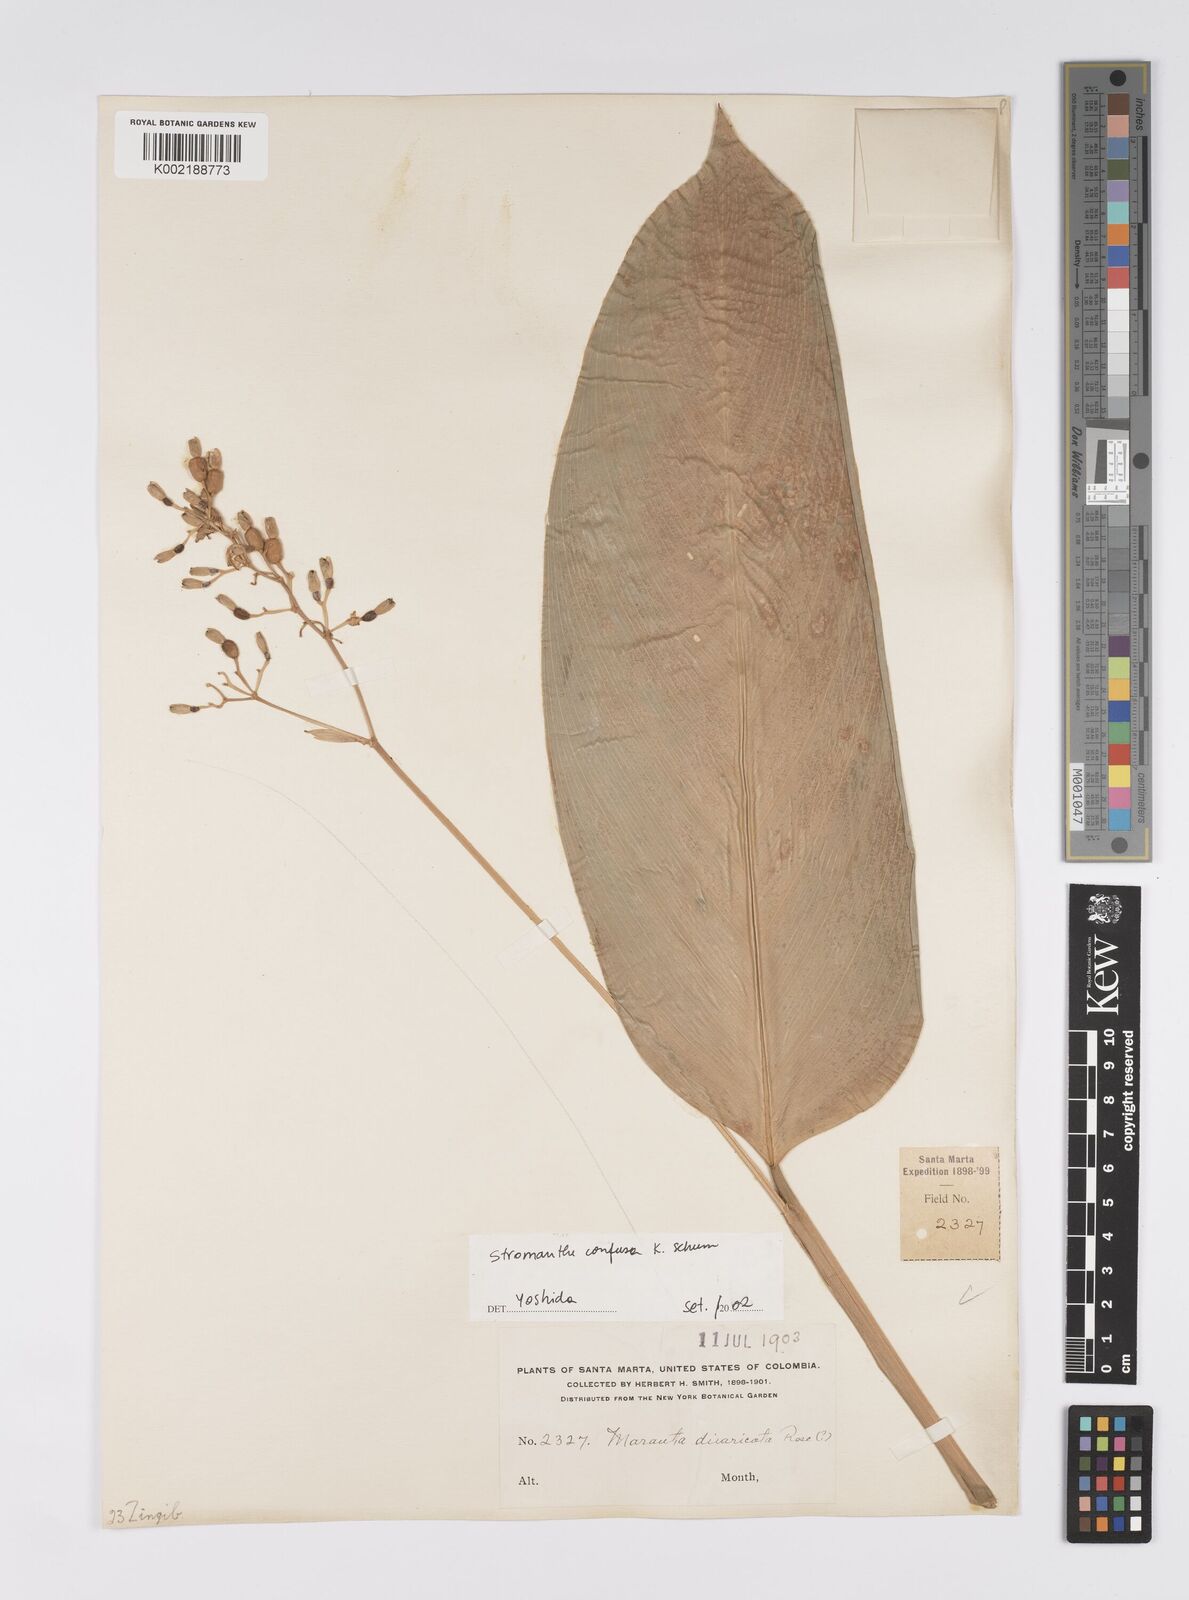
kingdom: Plantae
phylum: Tracheophyta
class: Liliopsida
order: Zingiberales
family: Marantaceae
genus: Stromanthe
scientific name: Stromanthe confusa
